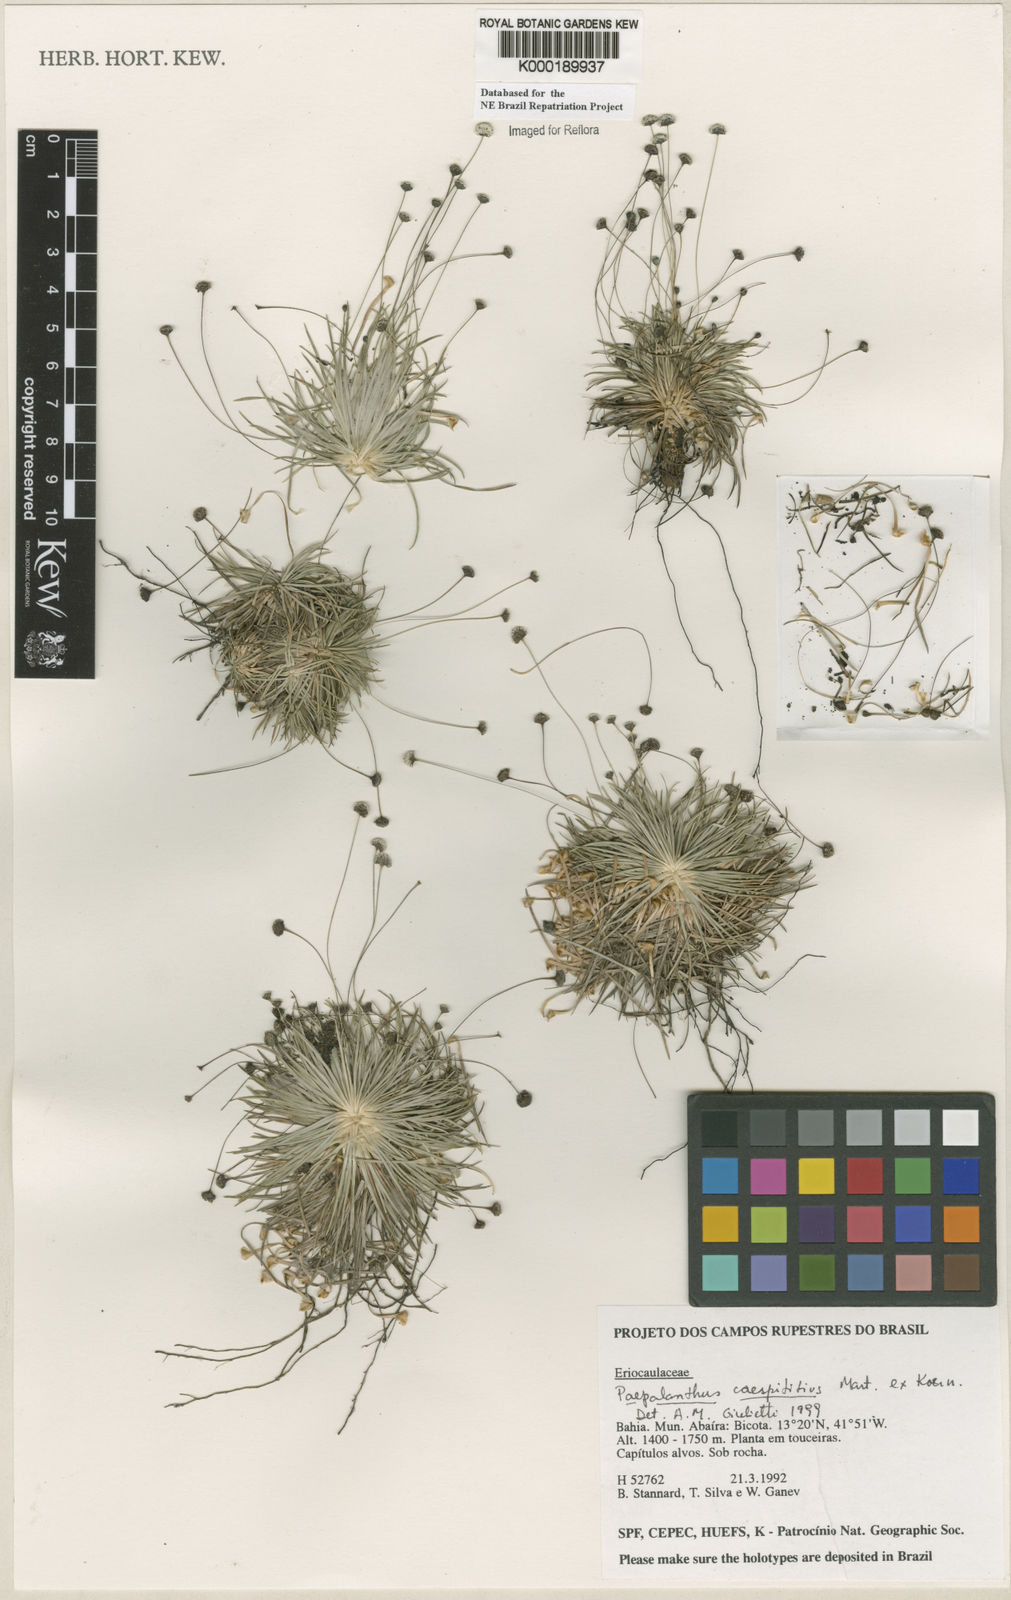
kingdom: Plantae
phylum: Tracheophyta
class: Liliopsida
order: Poales
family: Eriocaulaceae
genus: Paepalanthus
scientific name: Paepalanthus
